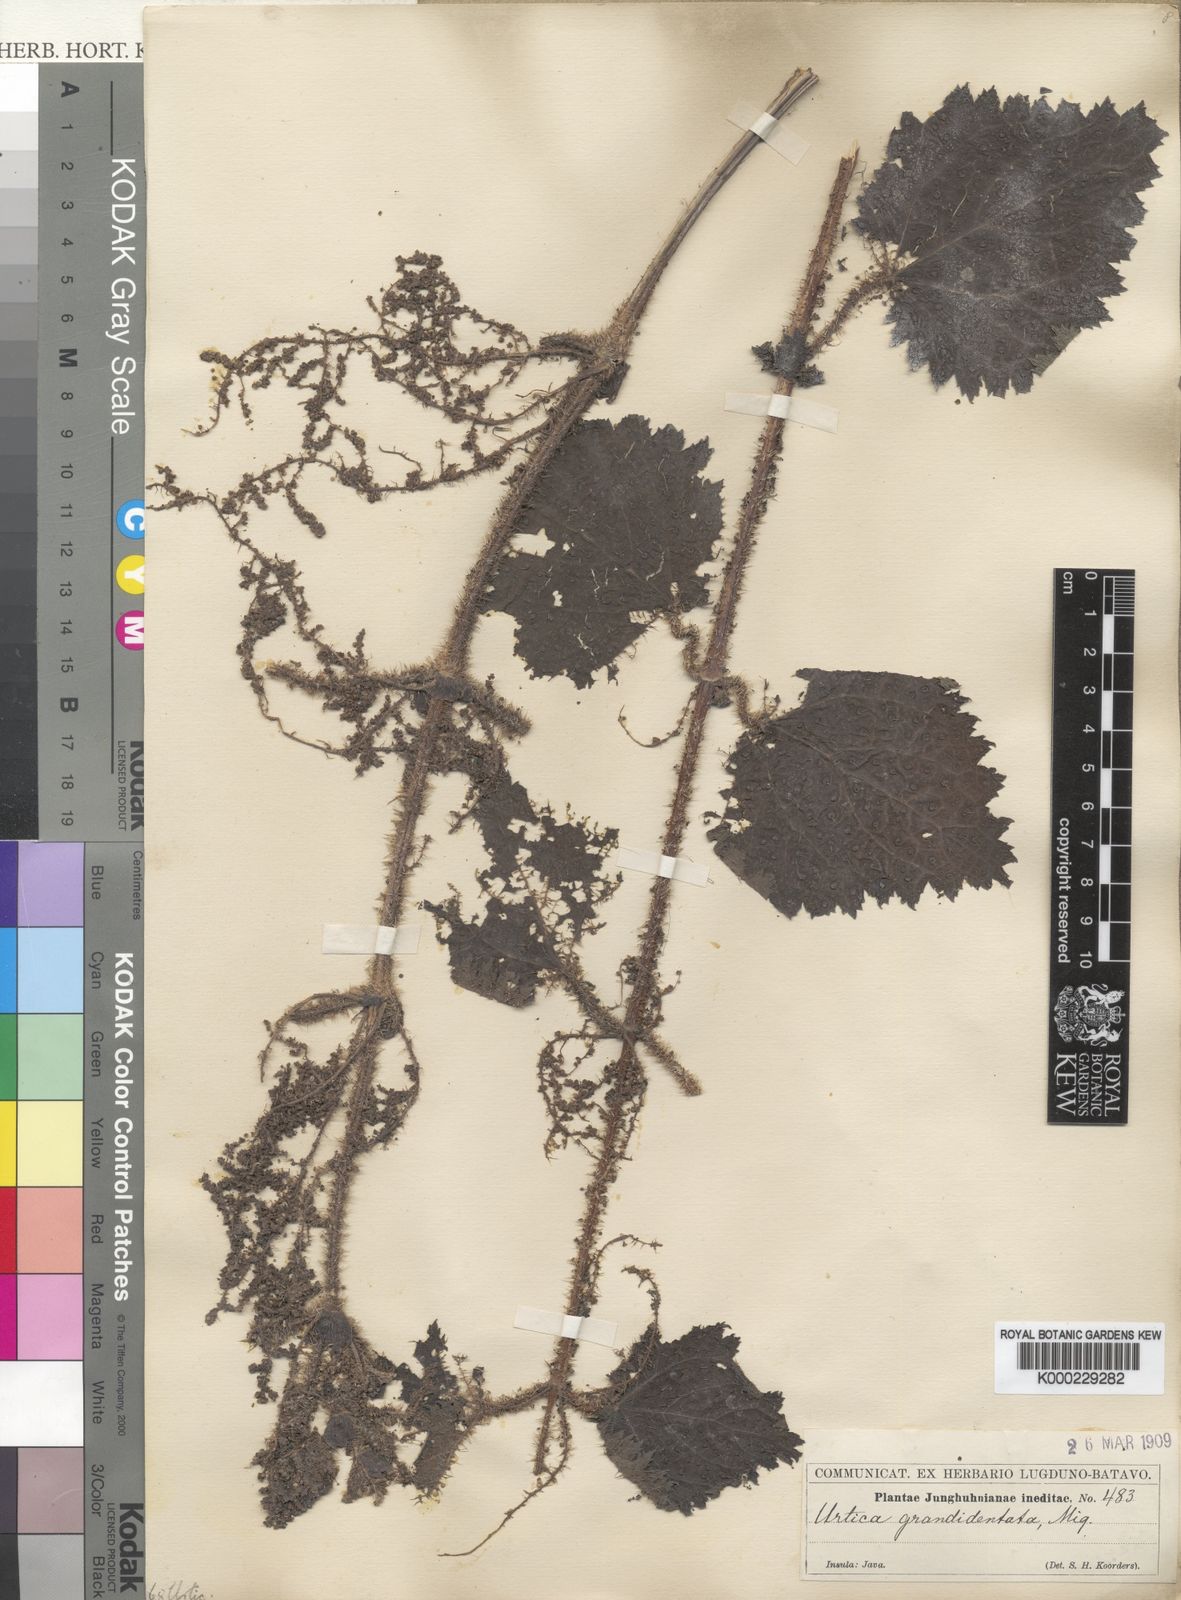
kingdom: Plantae
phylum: Tracheophyta
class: Magnoliopsida
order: Rosales
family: Urticaceae
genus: Urtica
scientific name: Urtica grandidentata
